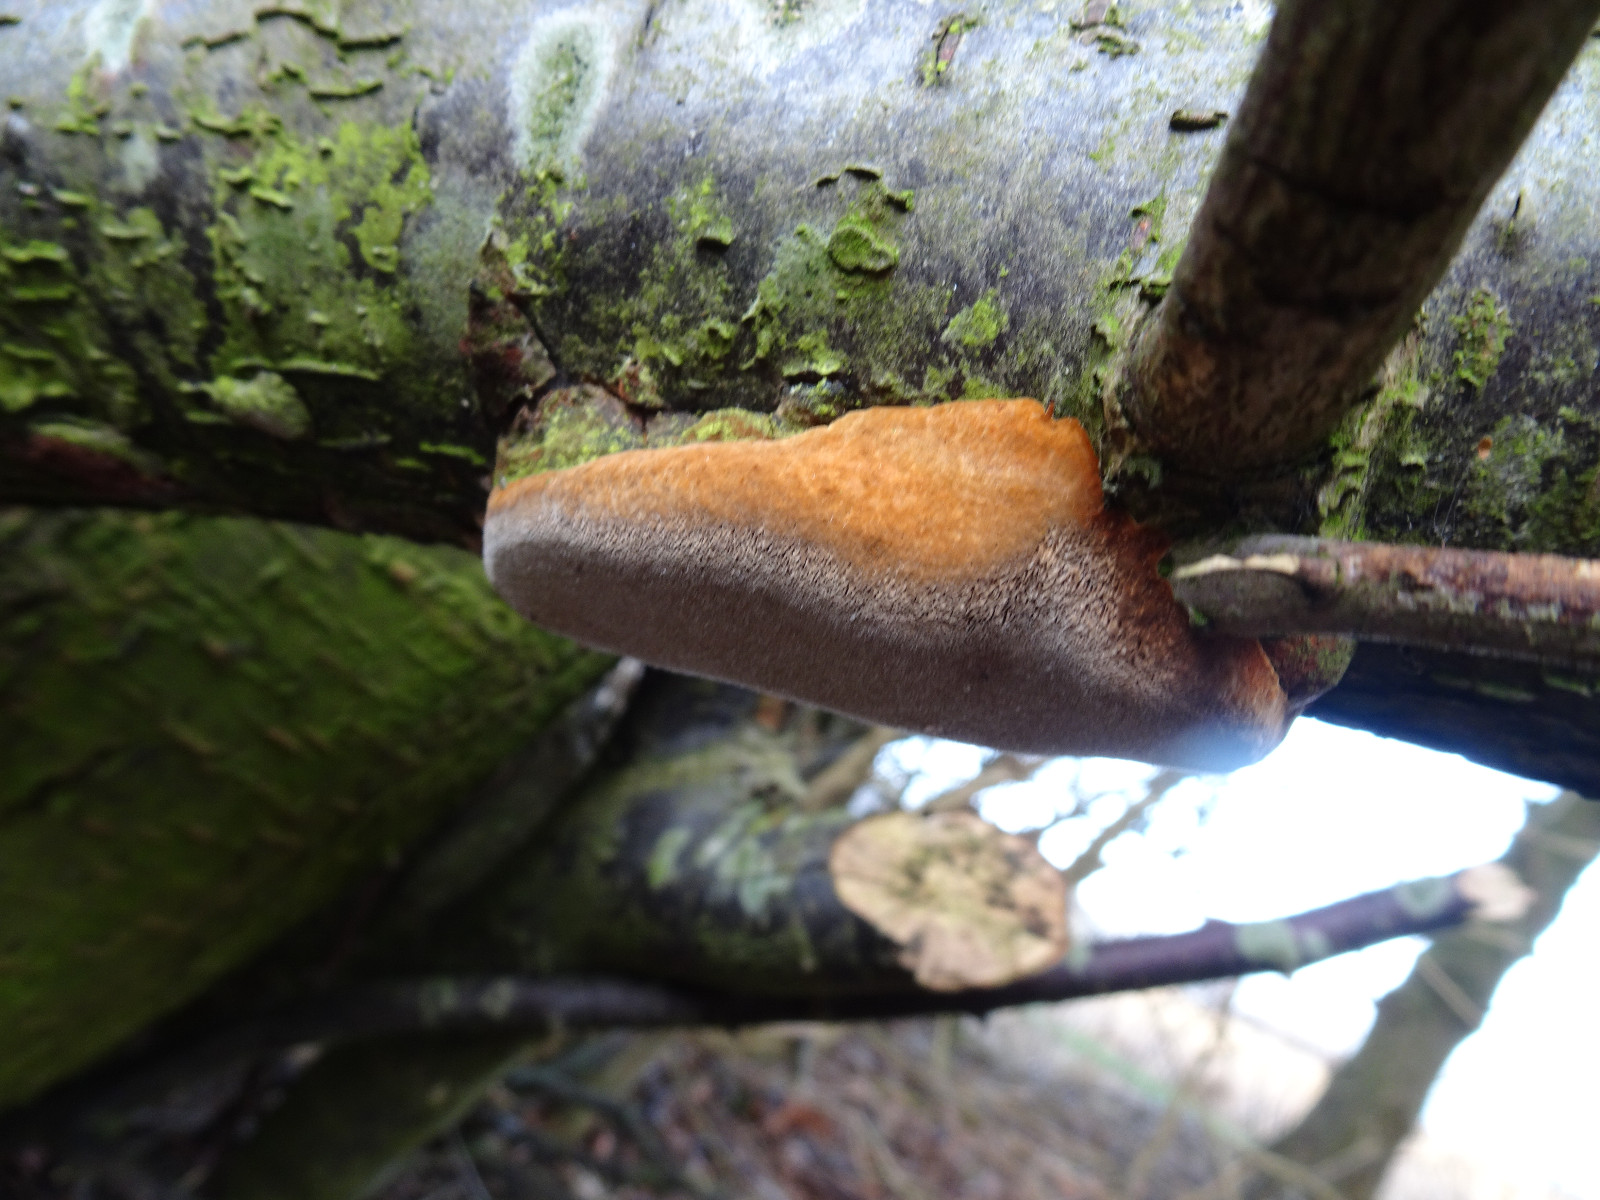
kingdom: Fungi
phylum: Basidiomycota
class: Agaricomycetes
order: Hymenochaetales
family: Hymenochaetaceae
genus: Phellinus
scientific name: Phellinus pomaceus
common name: blomme-ildporesvamp
